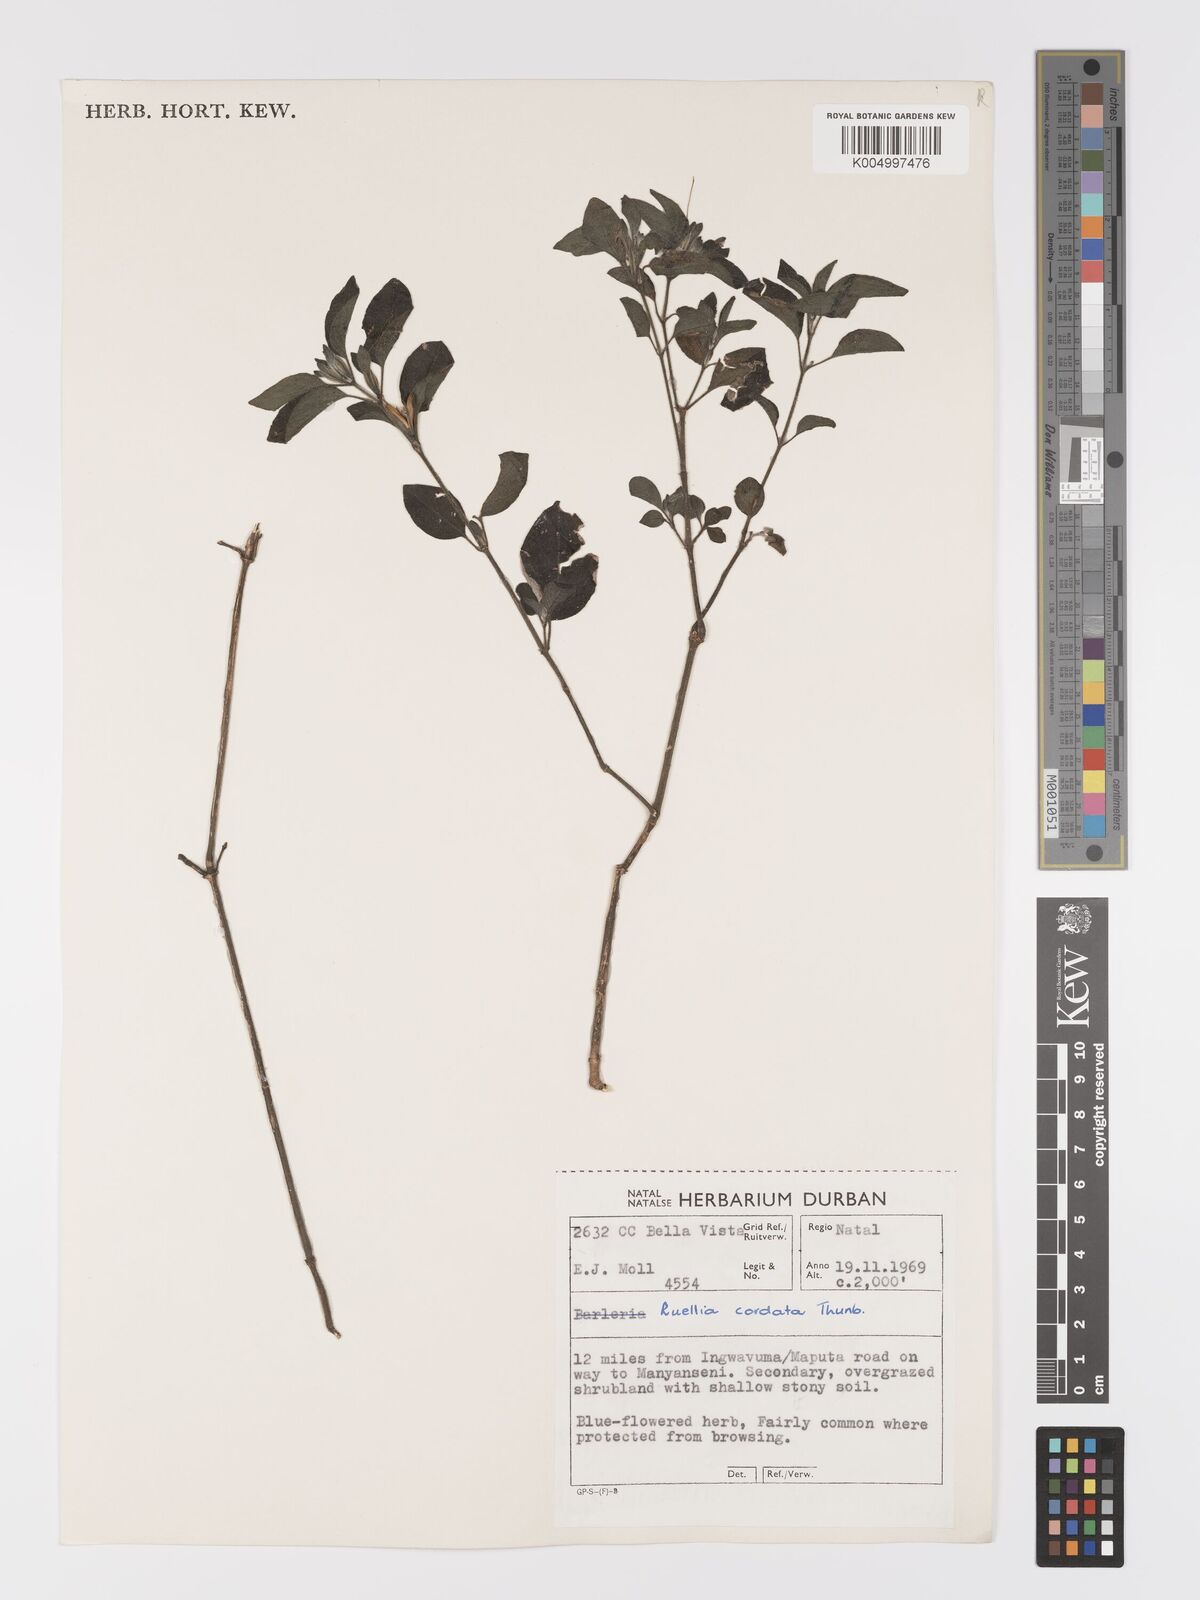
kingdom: Plantae
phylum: Tracheophyta
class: Magnoliopsida
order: Lamiales
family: Acanthaceae
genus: Ruellia
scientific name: Ruellia cordata
